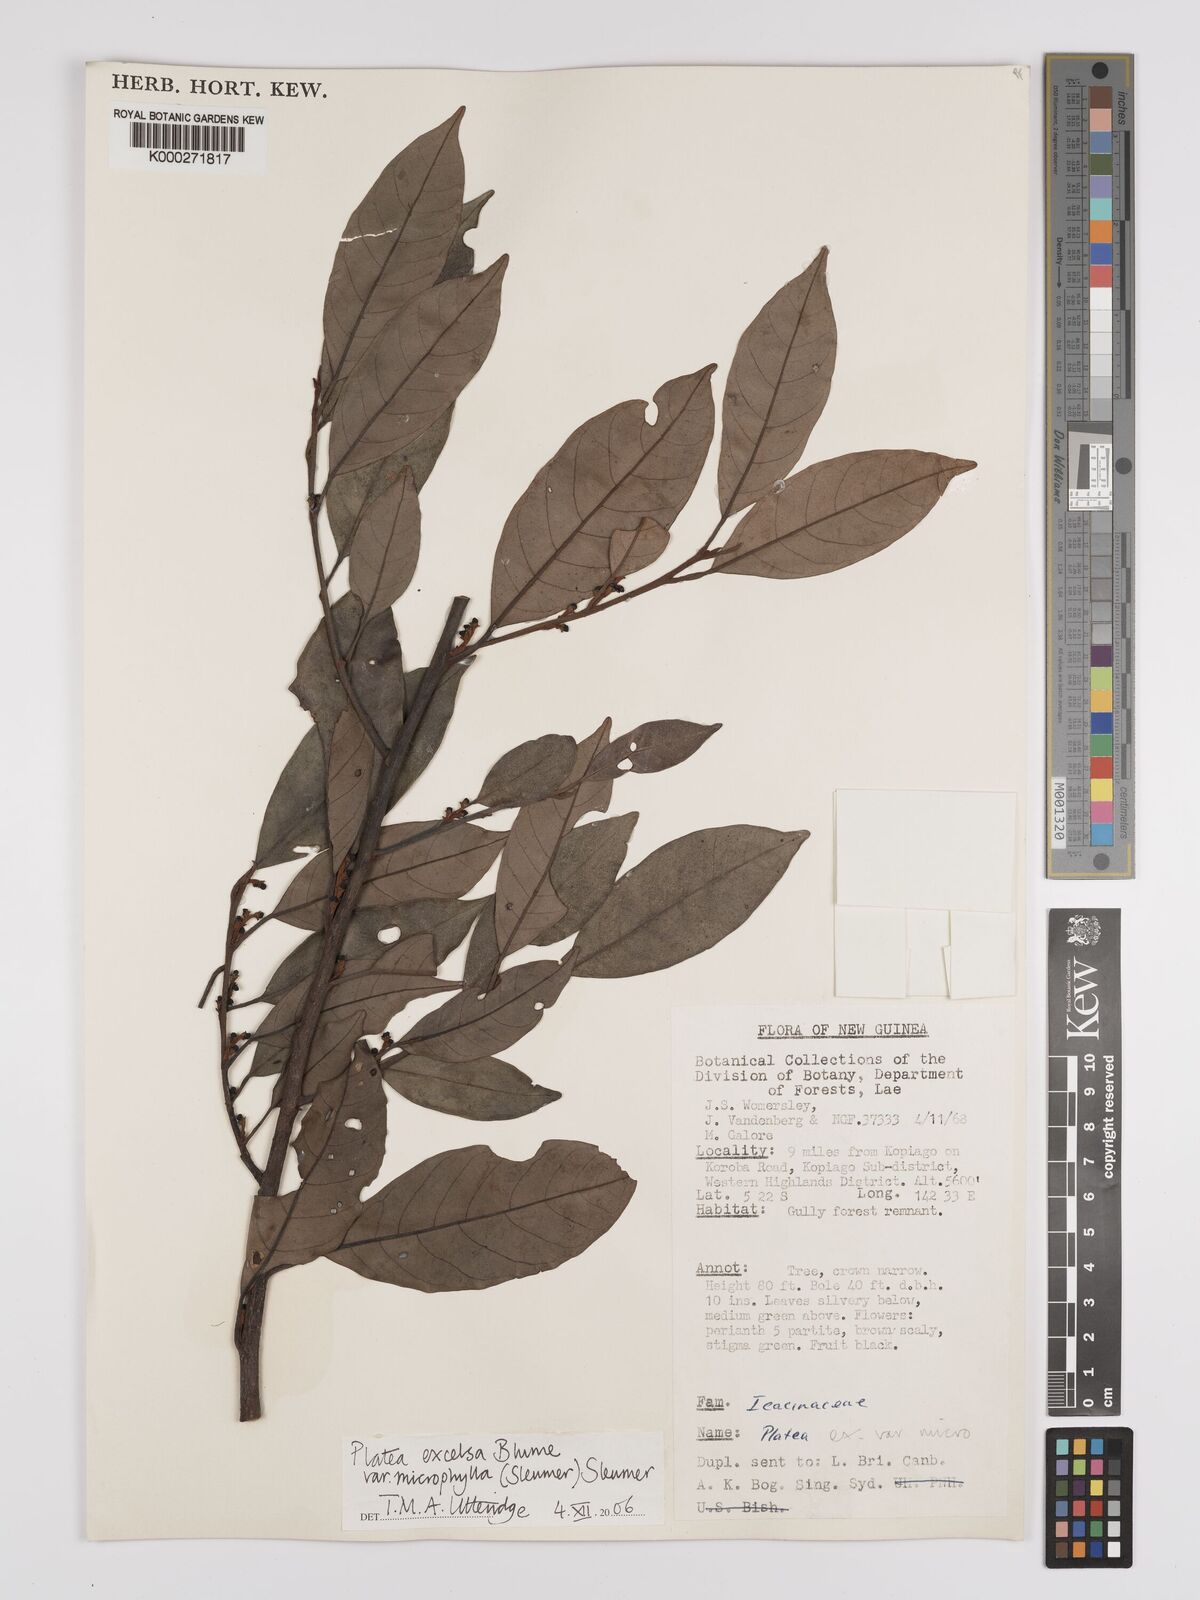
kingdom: Plantae
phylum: Tracheophyta
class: Magnoliopsida
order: Metteniusales
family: Metteniusaceae
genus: Platea
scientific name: Platea excelsa
